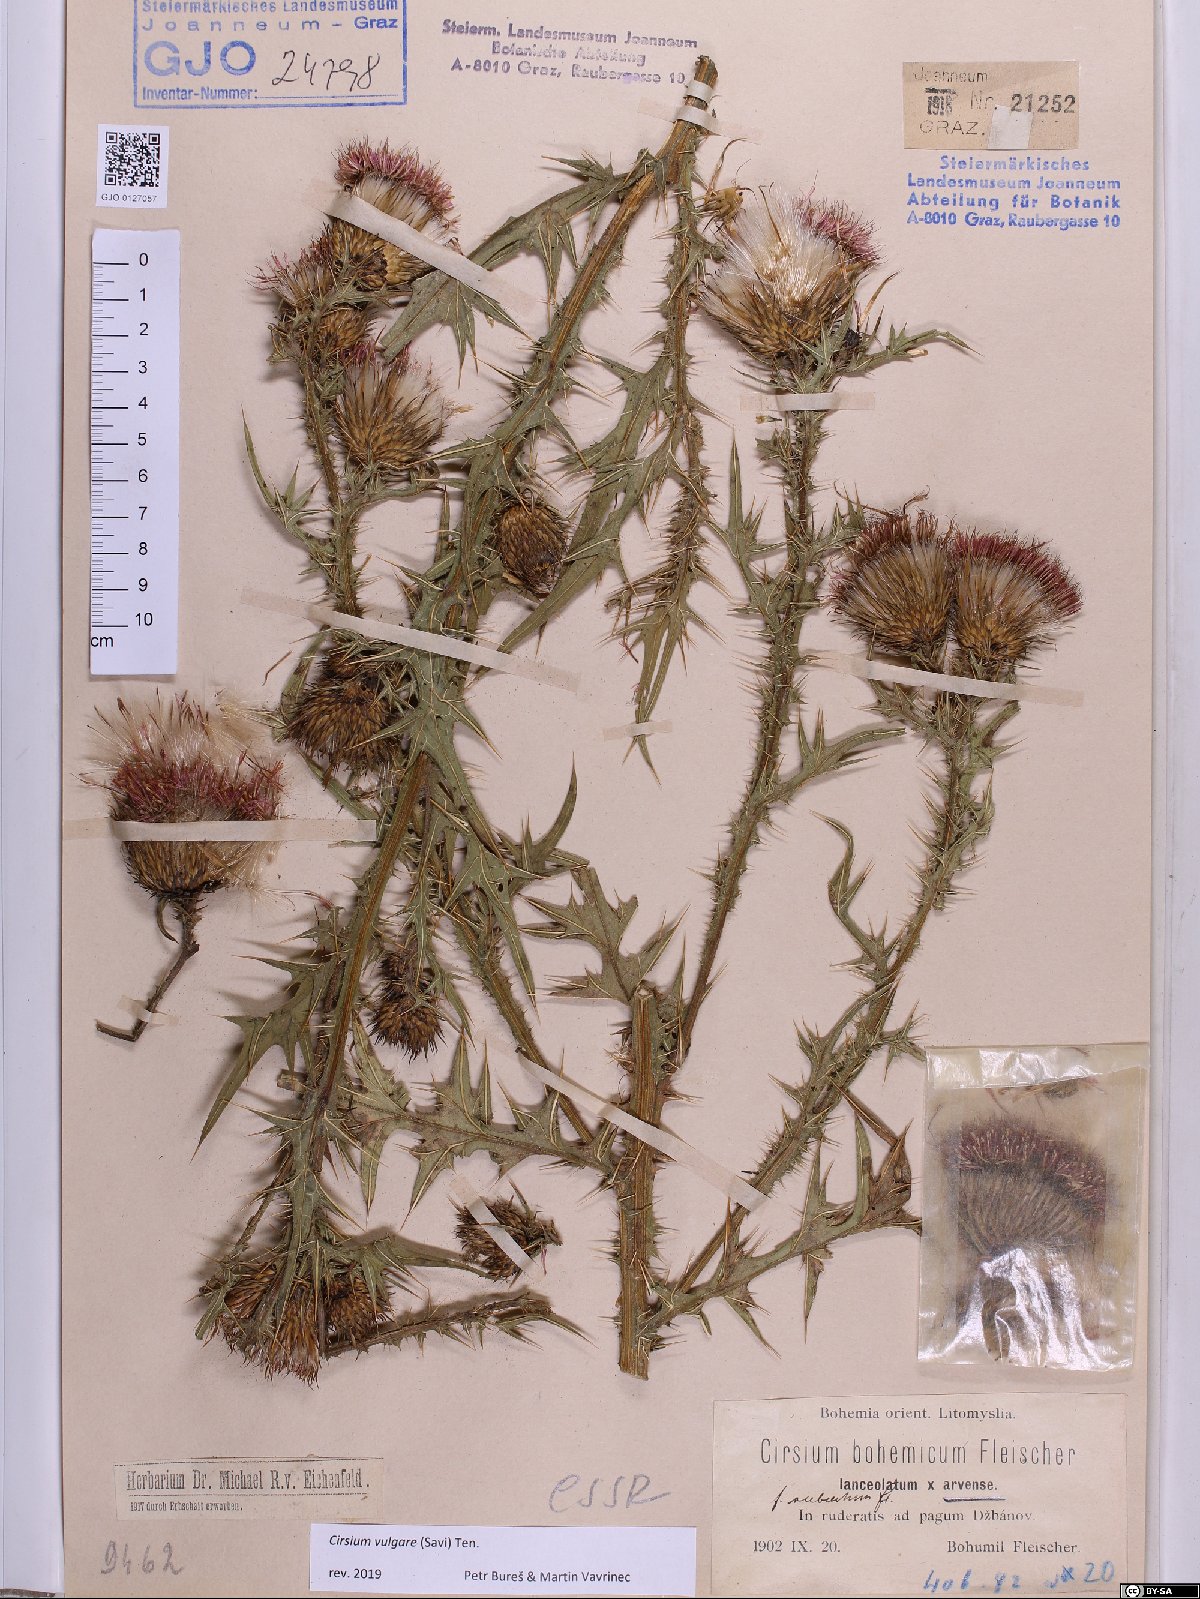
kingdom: Plantae
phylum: Tracheophyta
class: Magnoliopsida
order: Asterales
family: Asteraceae
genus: Cirsium
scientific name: Cirsium vulgare
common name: Bull thistle
